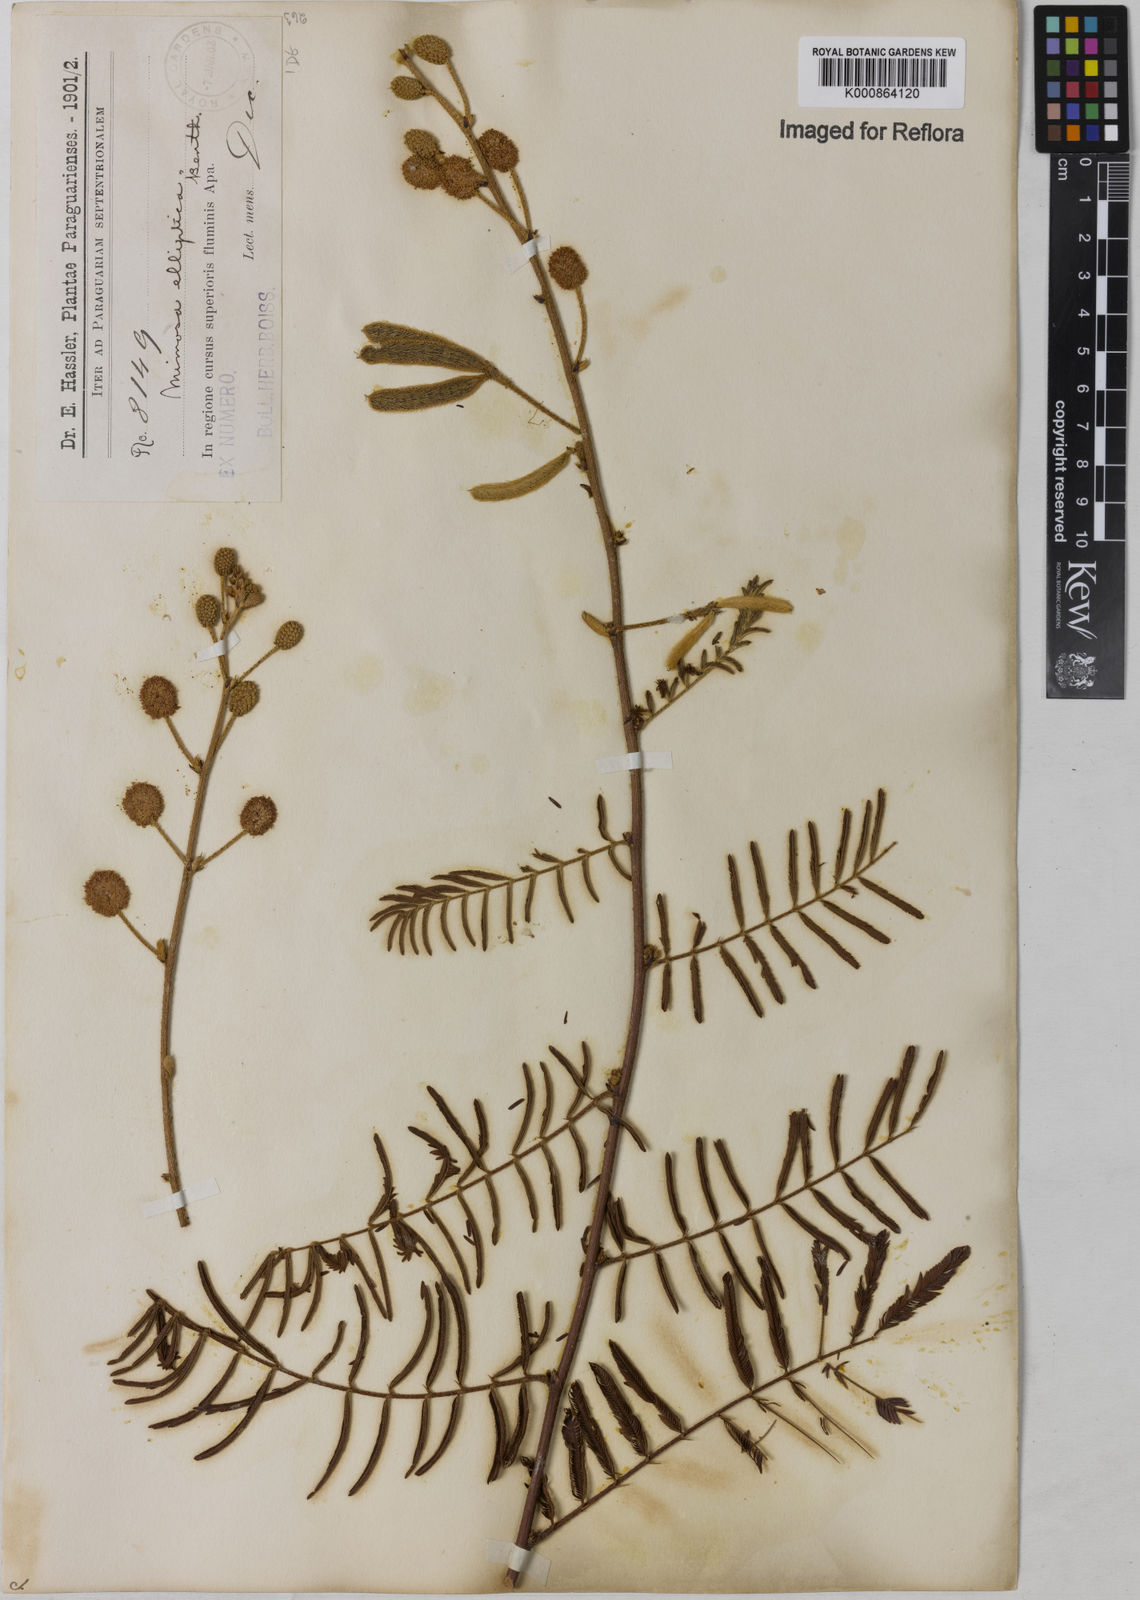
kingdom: Plantae
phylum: Tracheophyta
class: Magnoliopsida
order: Fabales
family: Fabaceae
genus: Mimosa
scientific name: Mimosa elliptica
